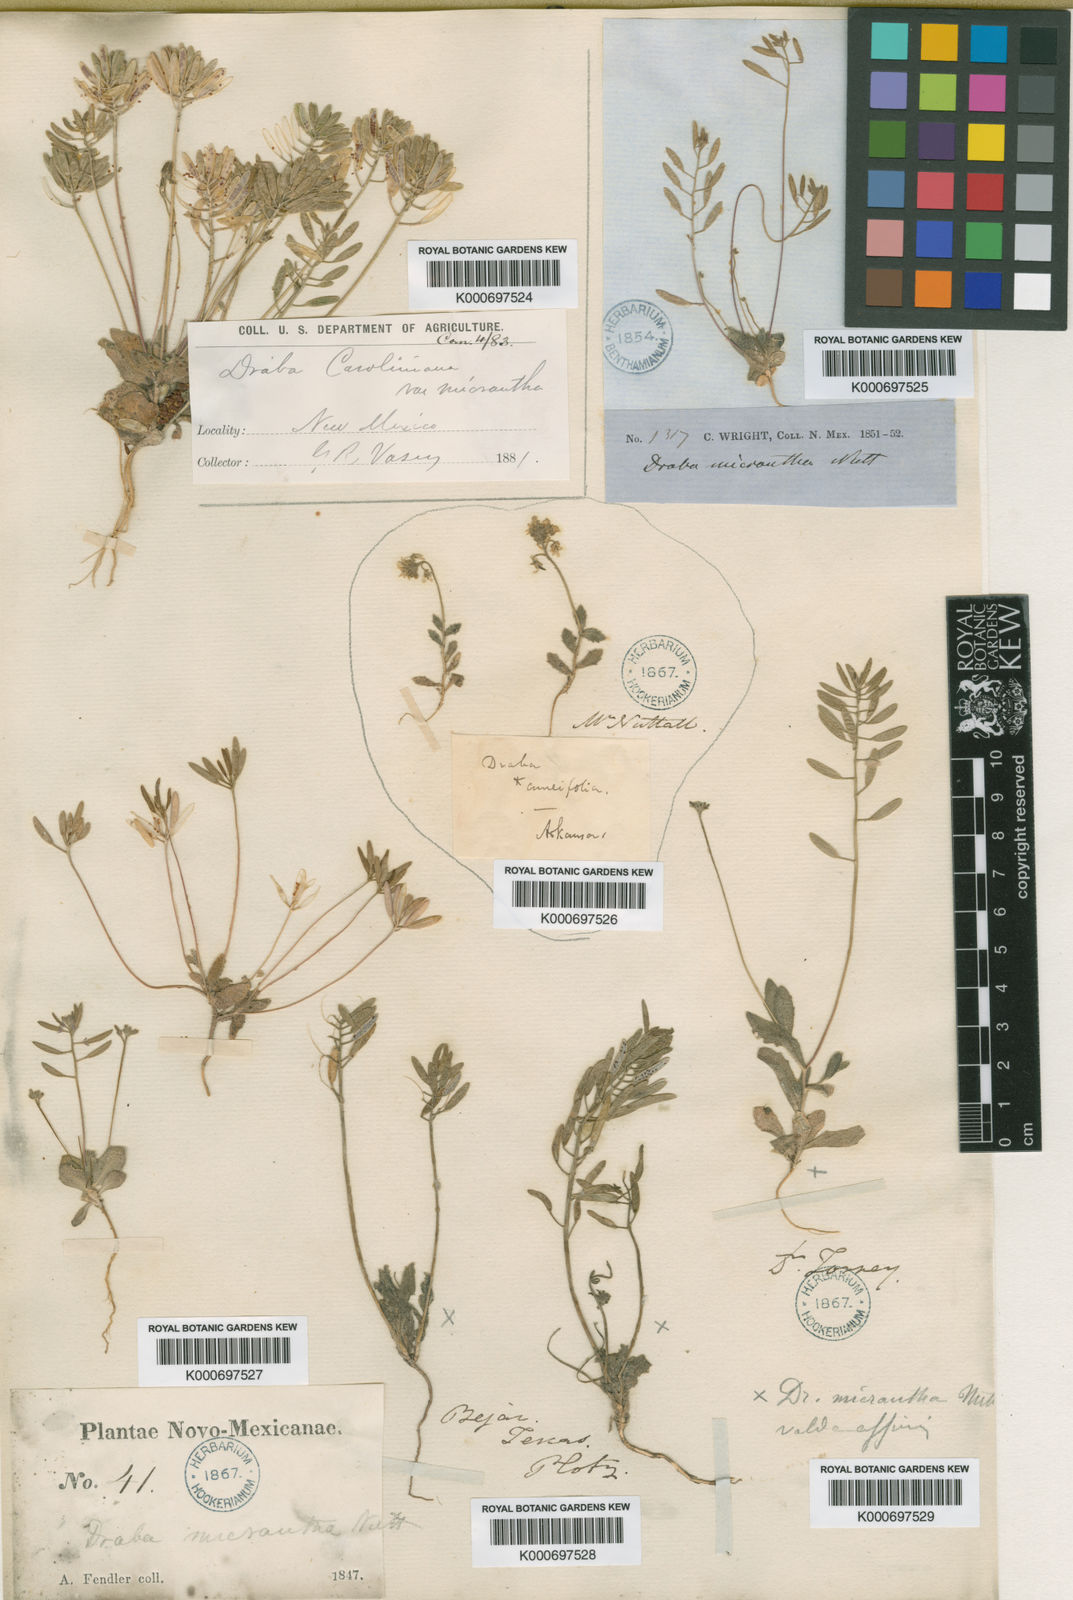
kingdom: Plantae
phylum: Tracheophyta
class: Magnoliopsida
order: Brassicales
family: Brassicaceae
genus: Tomostima
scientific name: Tomostima reptans
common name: Carolina draba
